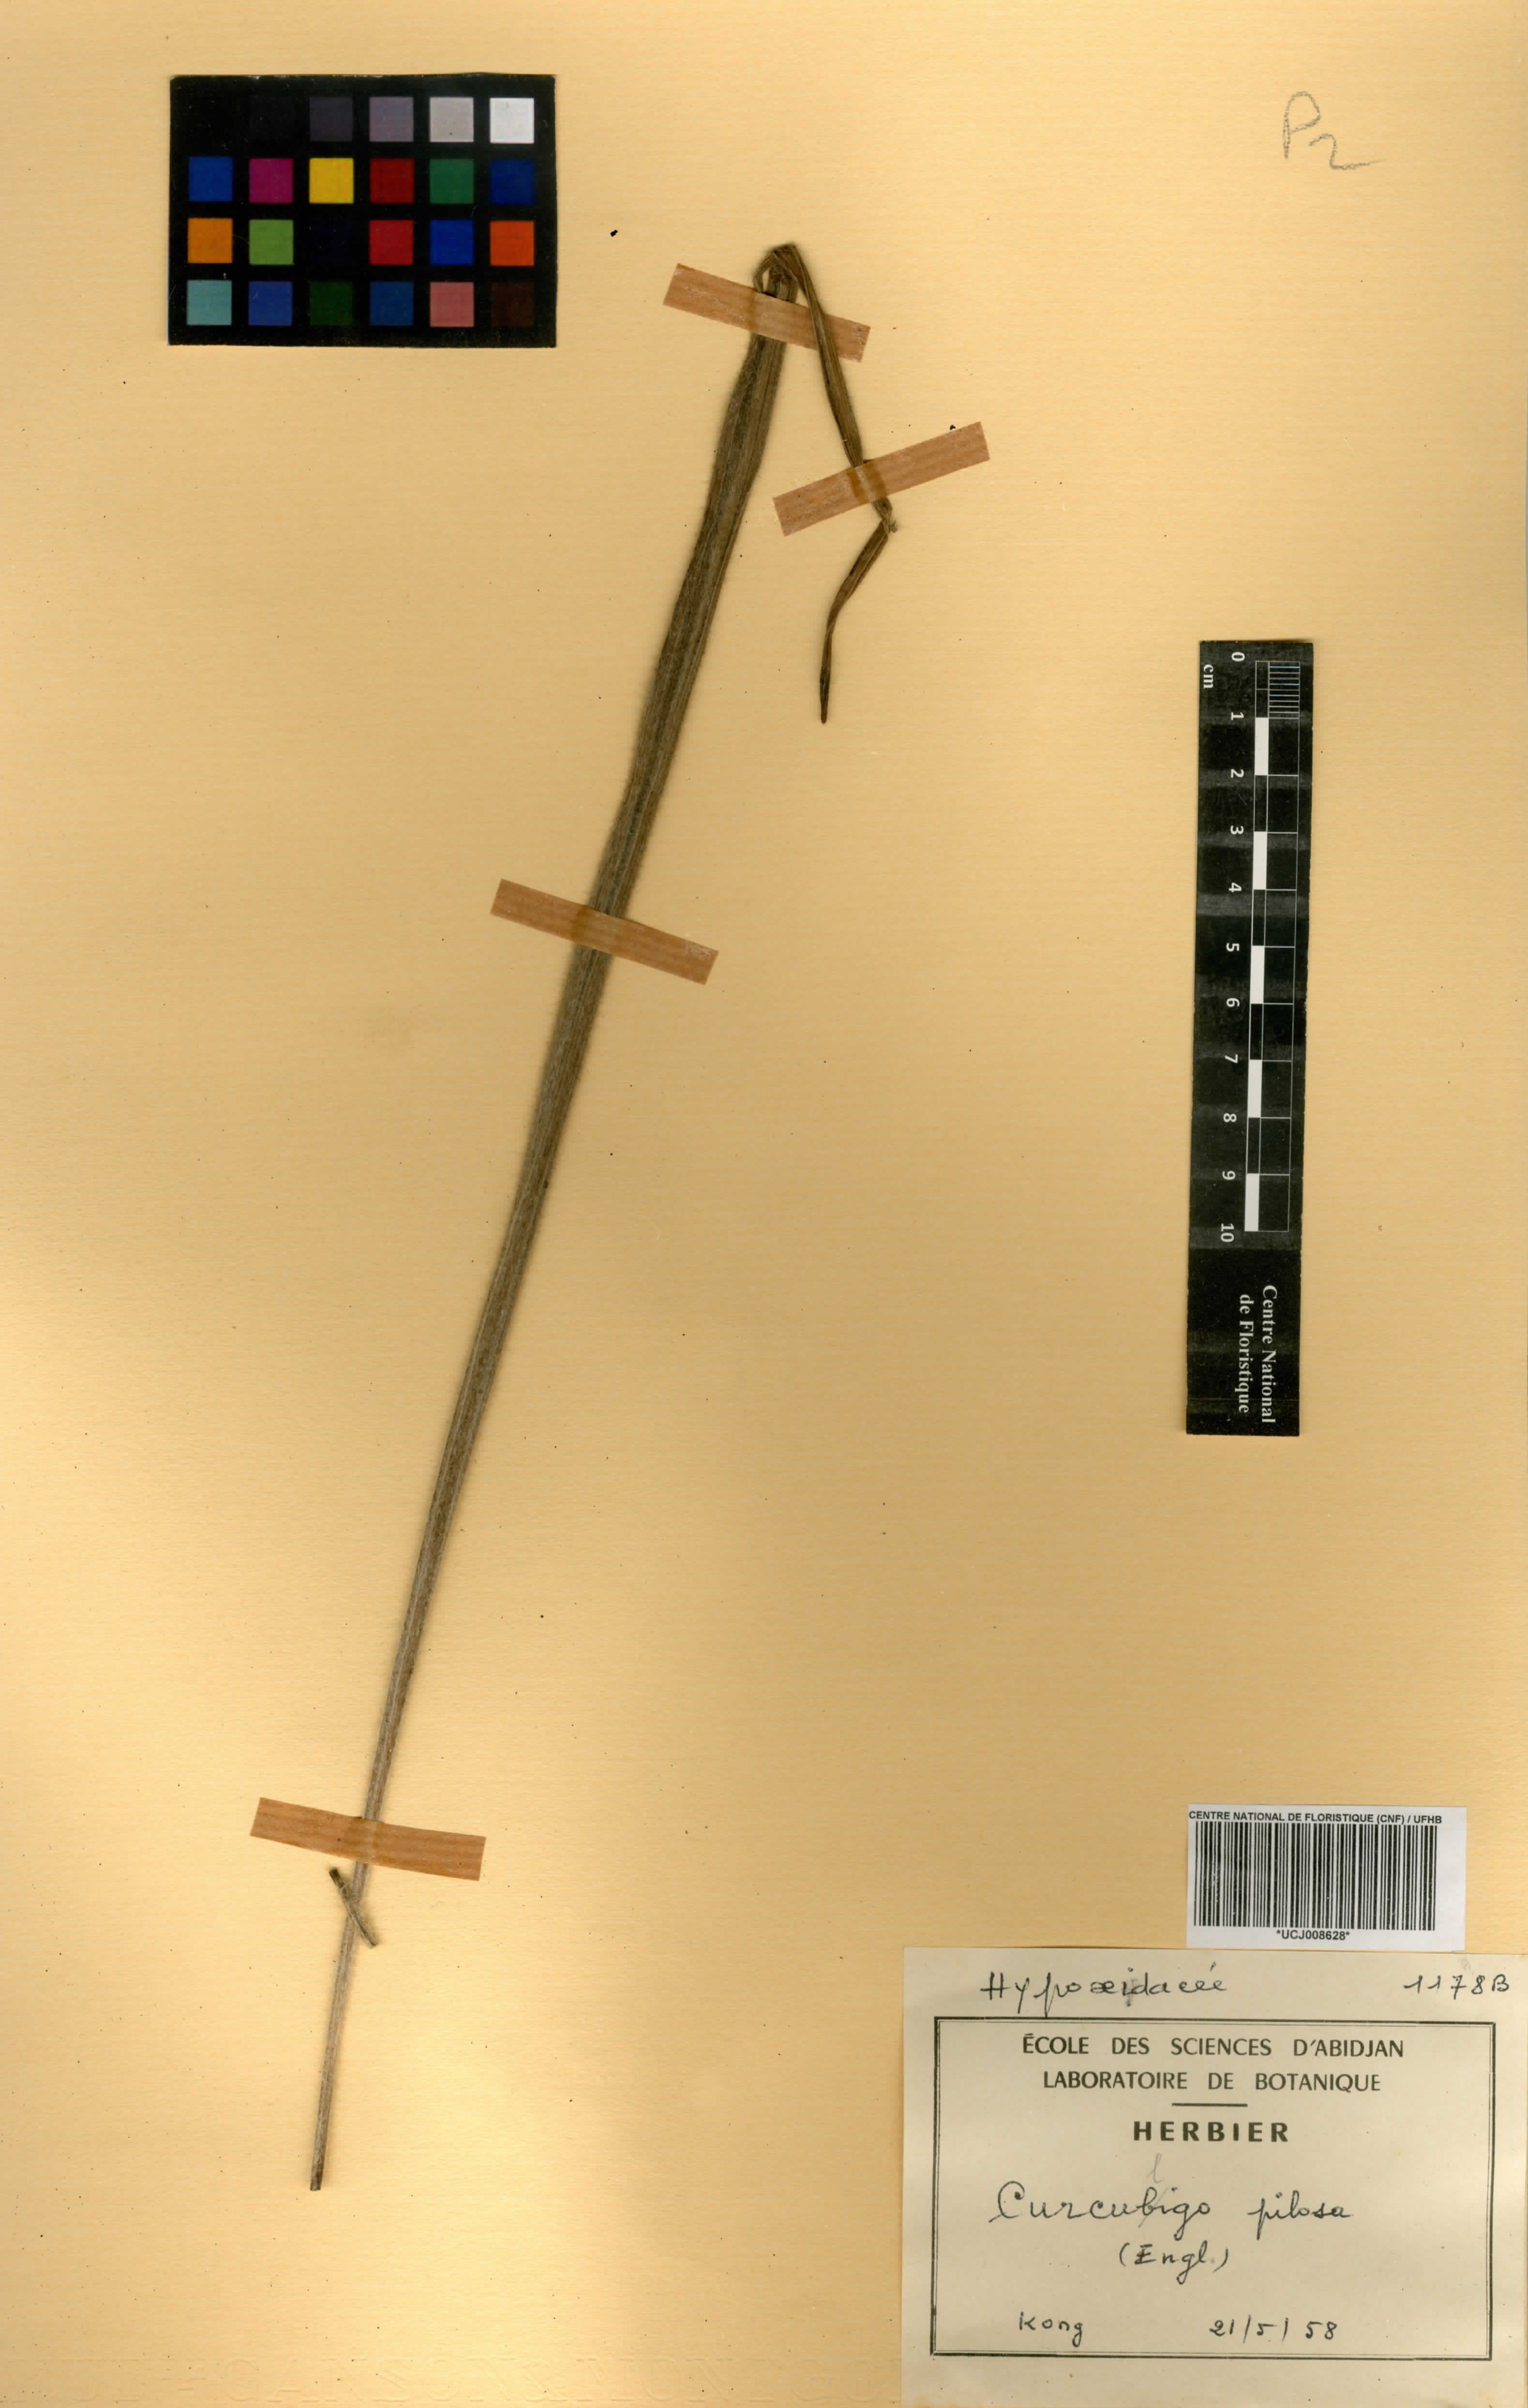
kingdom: Plantae
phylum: Tracheophyta
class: Liliopsida
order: Asparagales
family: Hypoxidaceae
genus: Curculigo
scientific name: Curculigo pilosa
